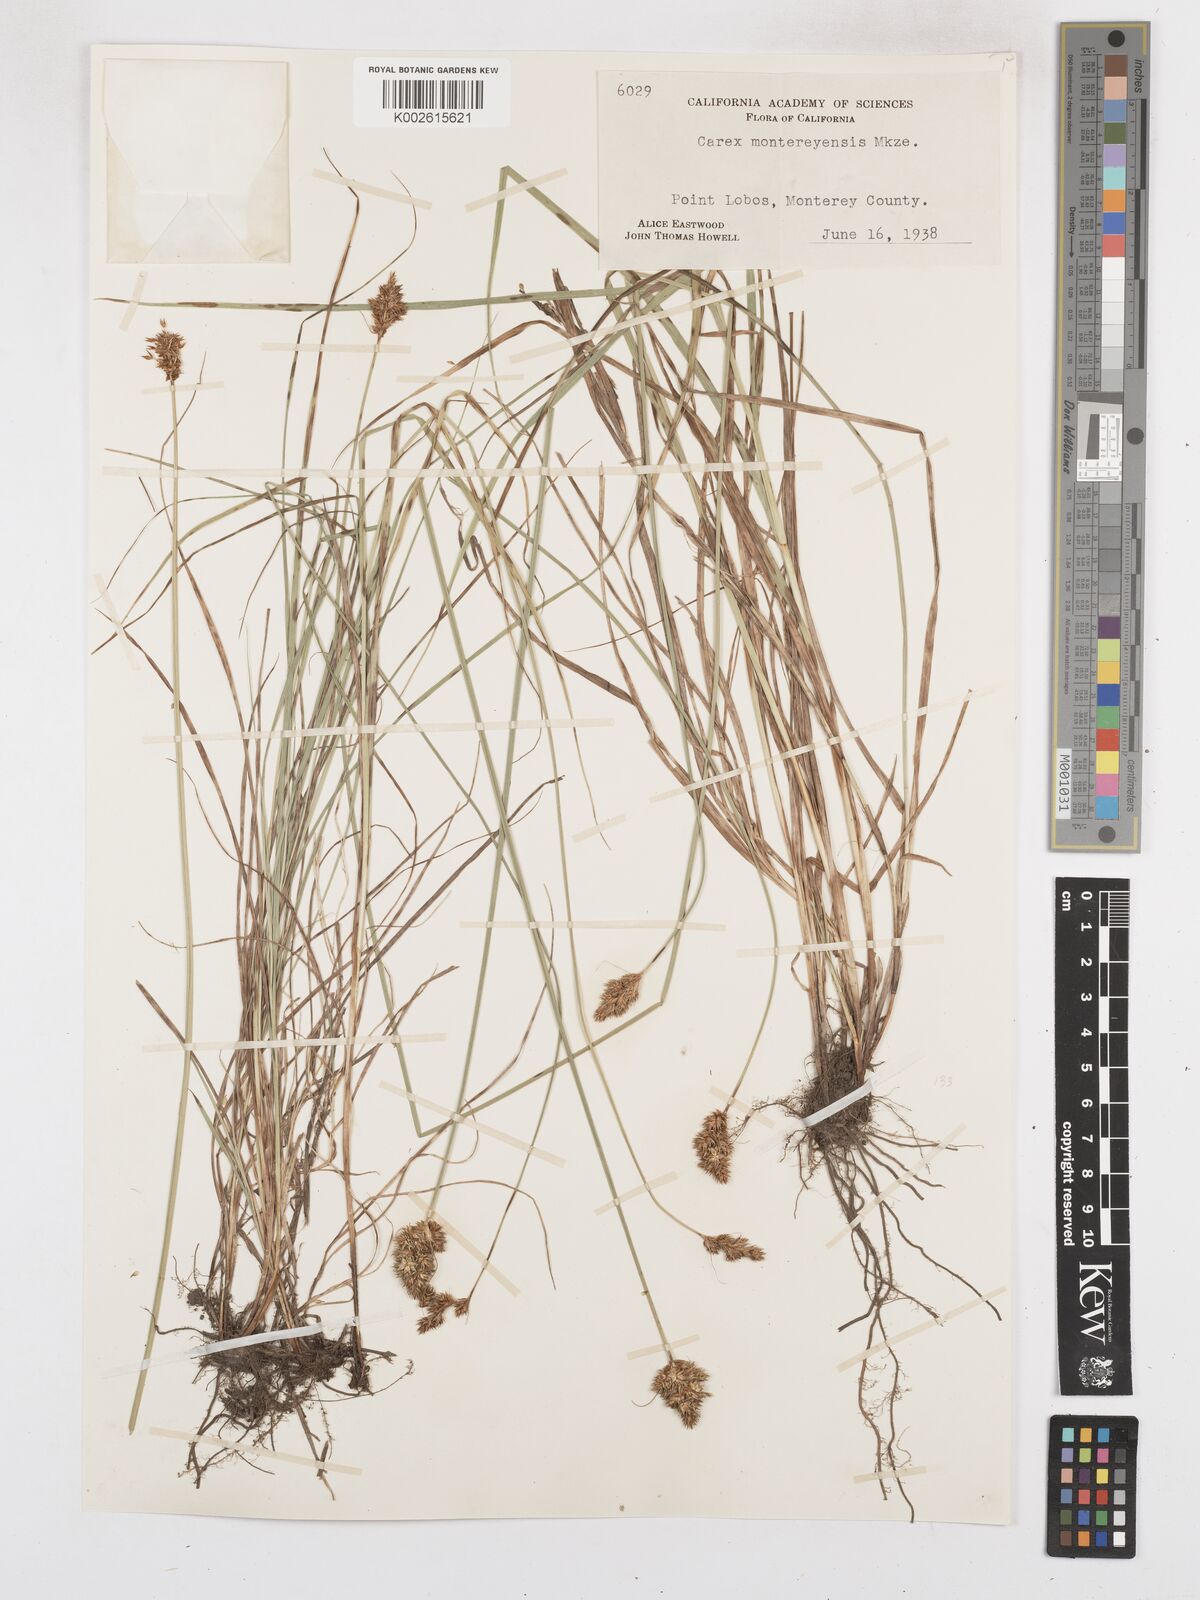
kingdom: Plantae
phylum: Tracheophyta
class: Liliopsida
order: Poales
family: Cyperaceae
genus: Carex
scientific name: Carex harfordii
